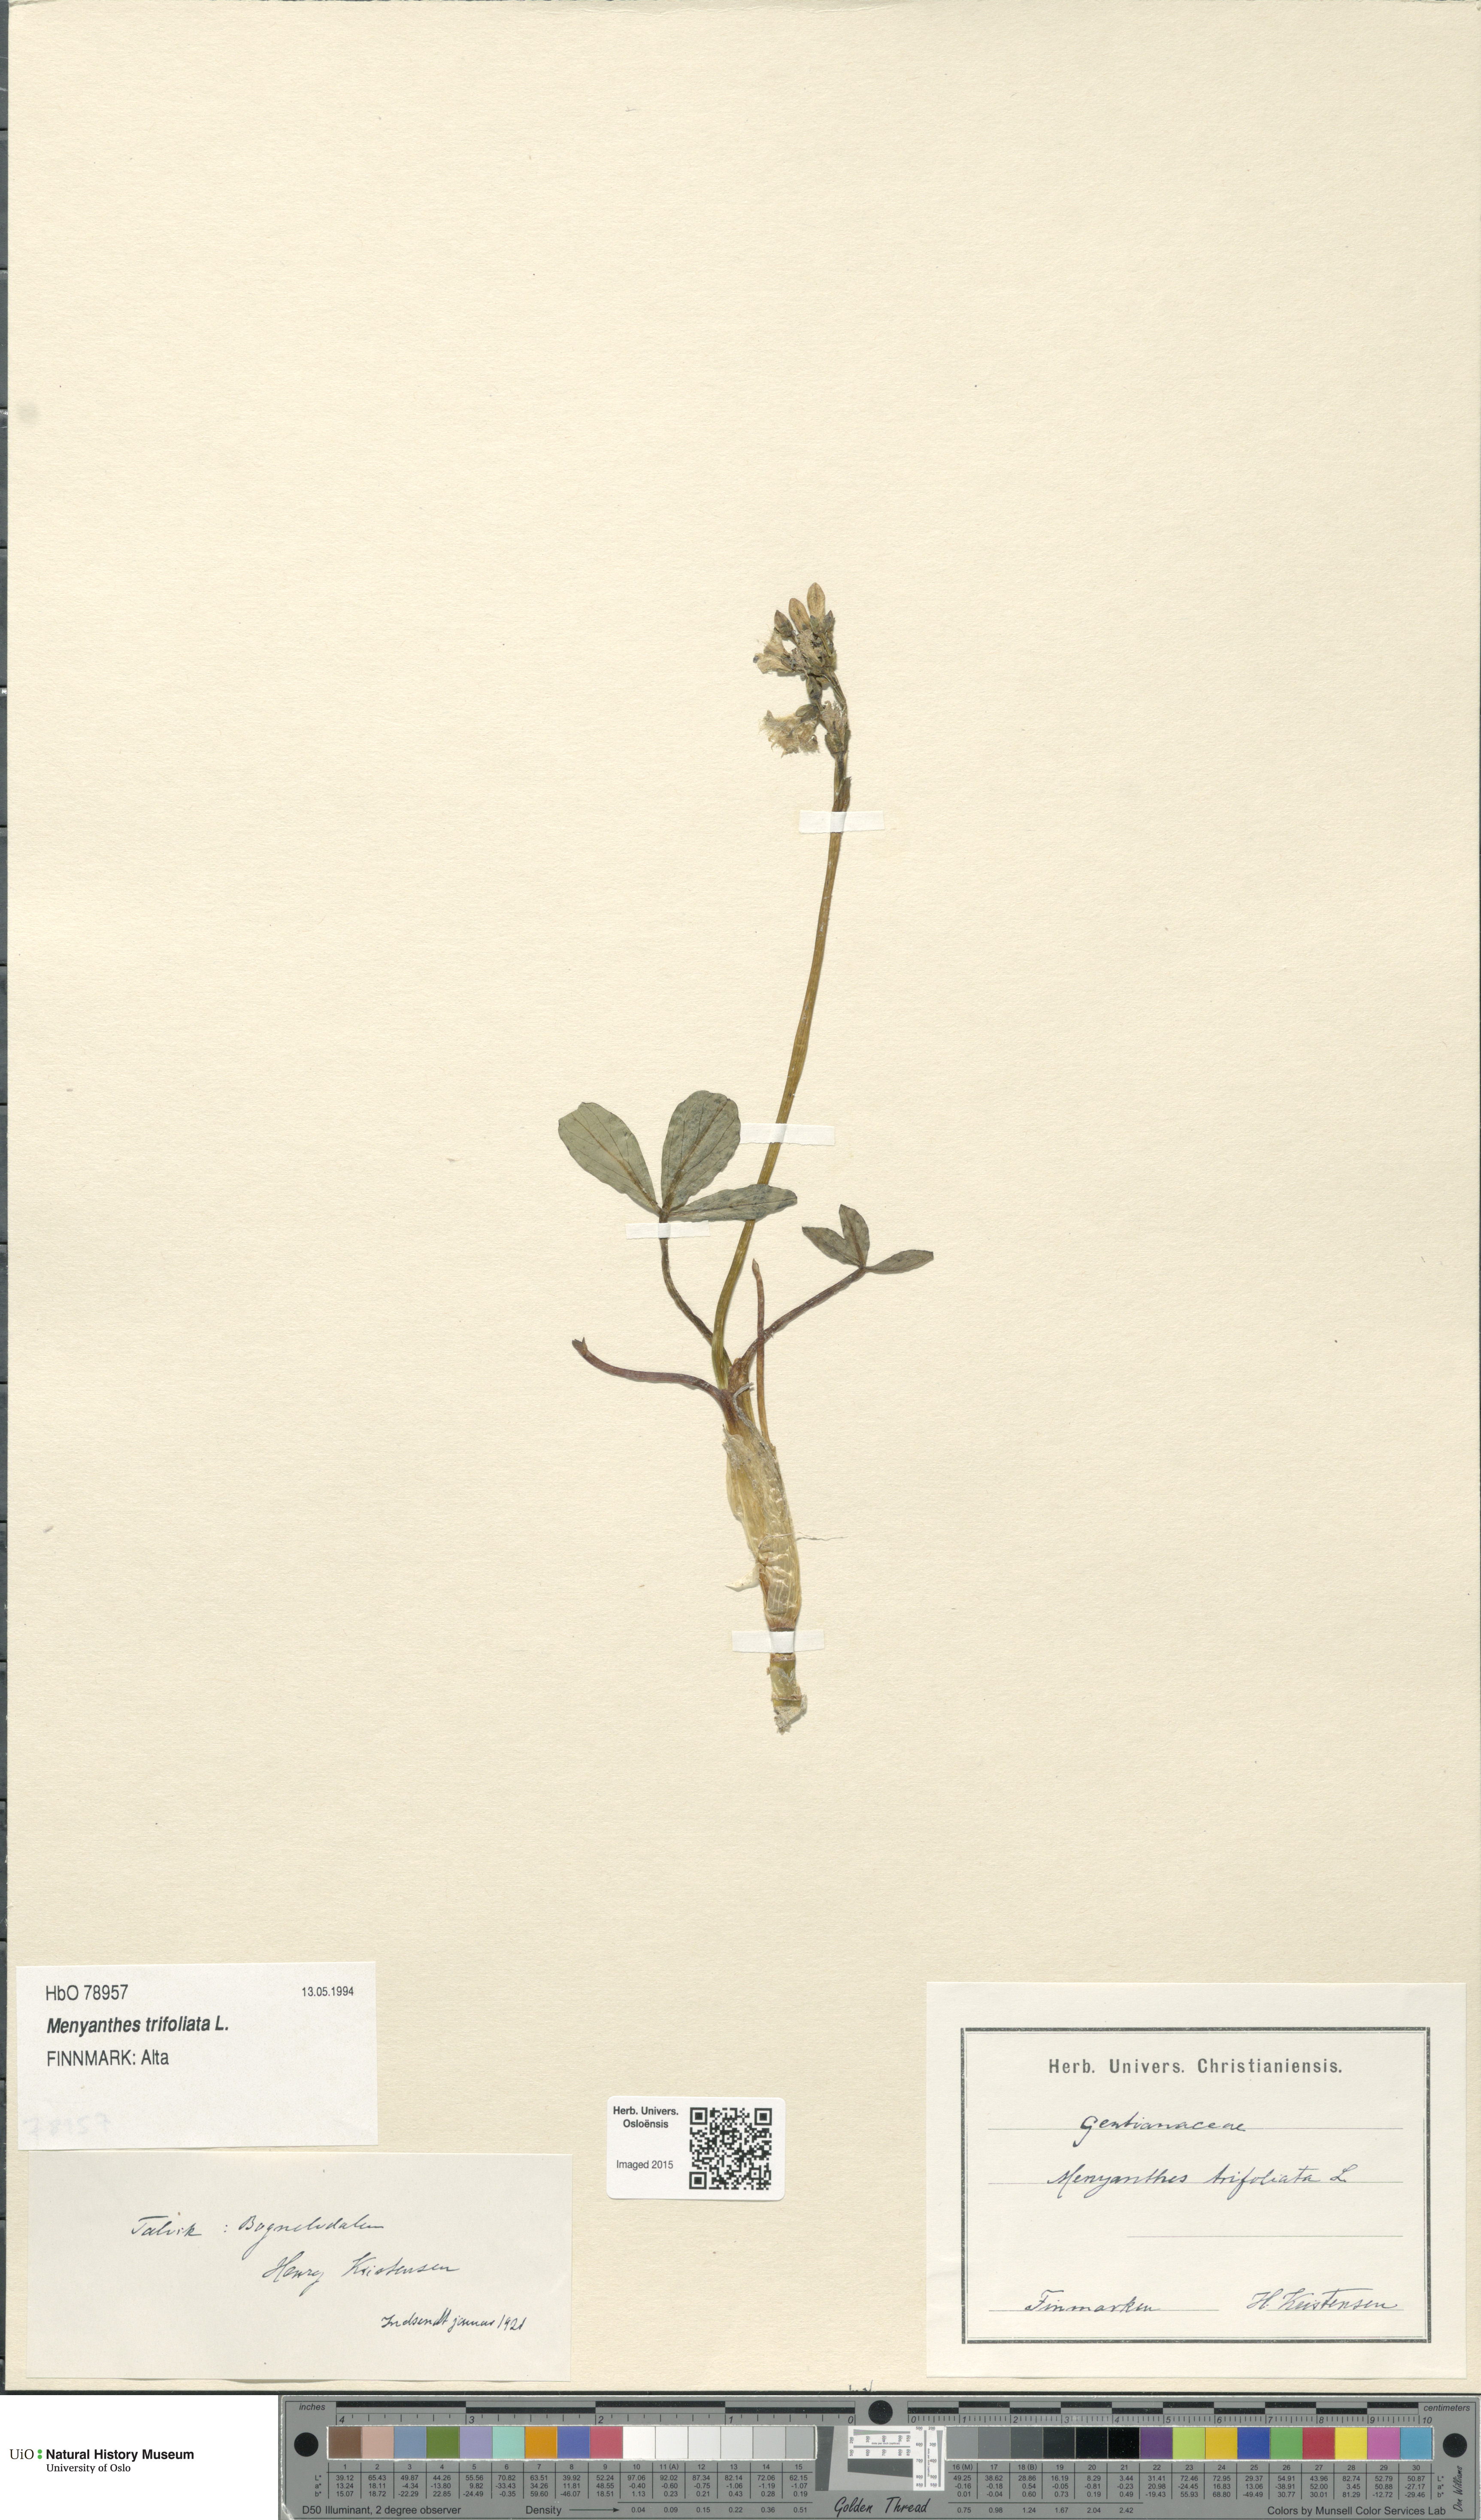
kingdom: Plantae
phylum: Tracheophyta
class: Magnoliopsida
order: Asterales
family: Menyanthaceae
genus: Menyanthes
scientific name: Menyanthes trifoliata
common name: Bogbean
